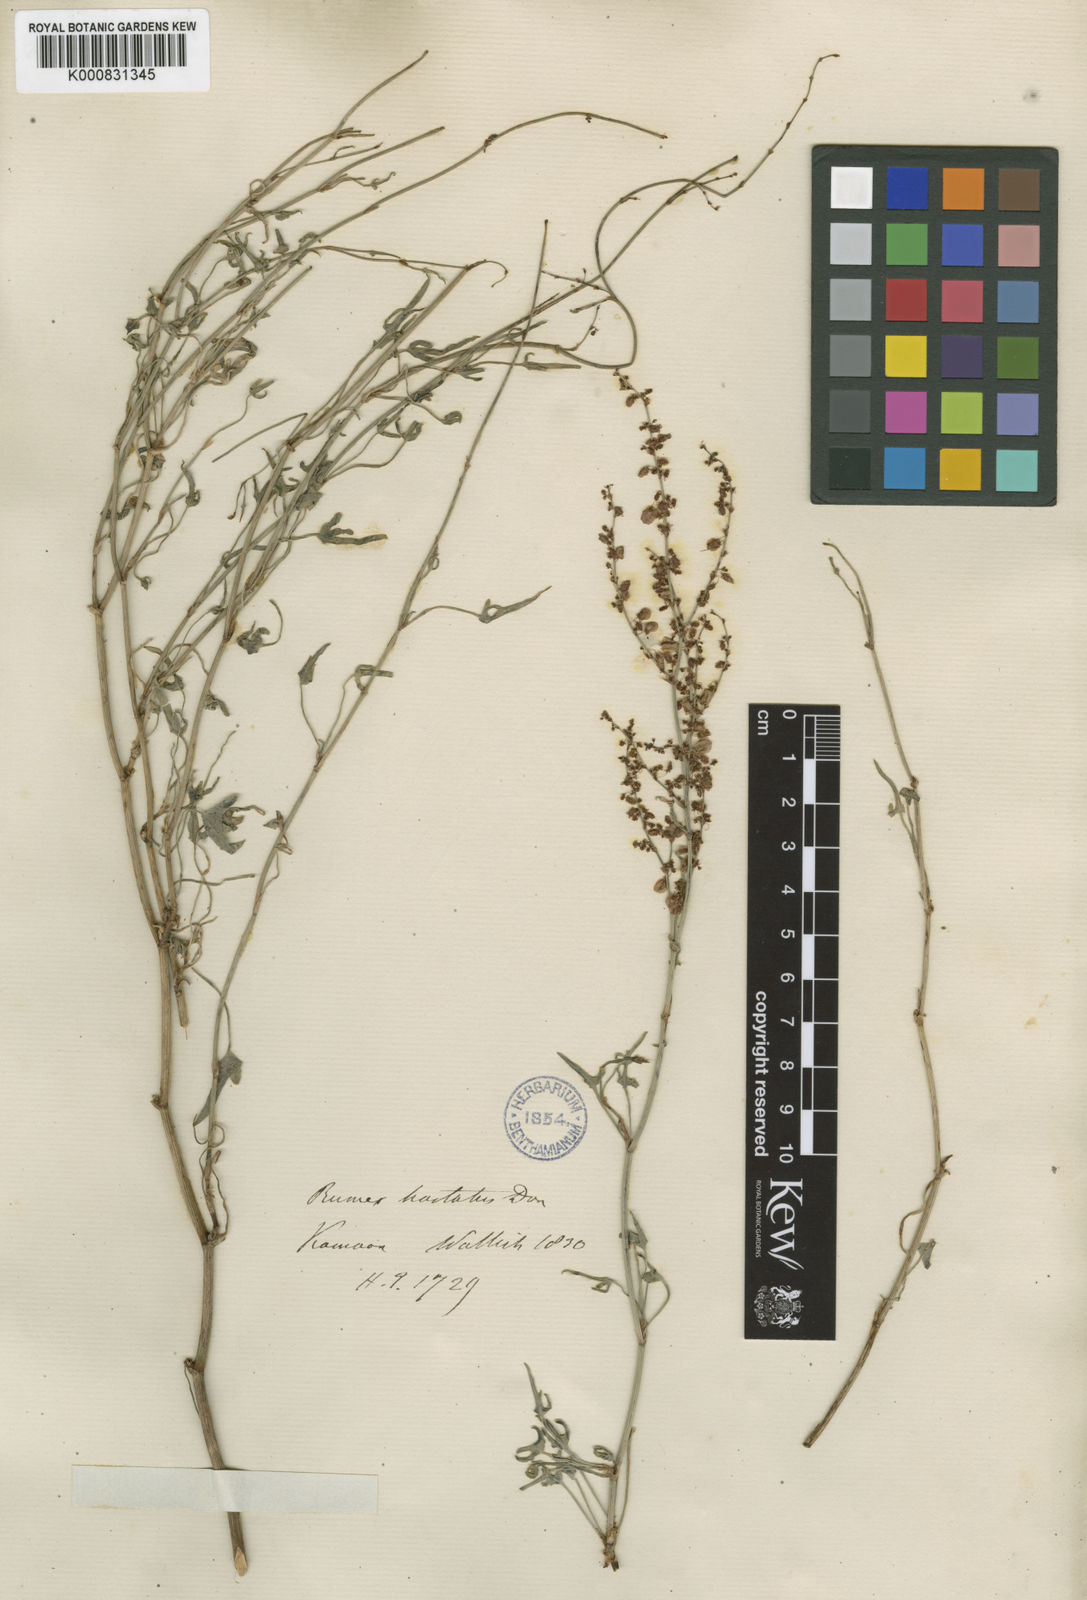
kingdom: Plantae
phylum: Tracheophyta
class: Magnoliopsida
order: Caryophyllales
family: Polygonaceae
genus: Rumex
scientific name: Rumex hastatus
